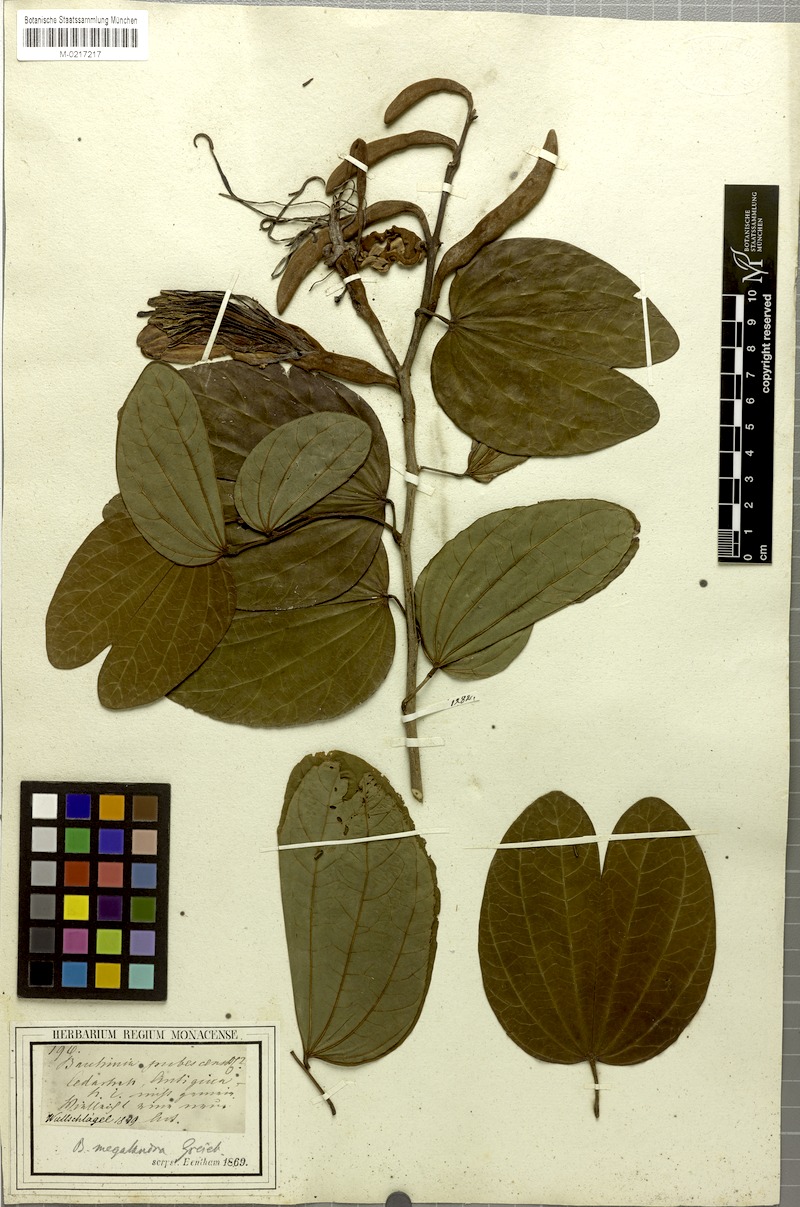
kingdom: Plantae
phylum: Tracheophyta
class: Magnoliopsida
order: Fabales
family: Fabaceae
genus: Bauhinia
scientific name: Bauhinia multinervia
